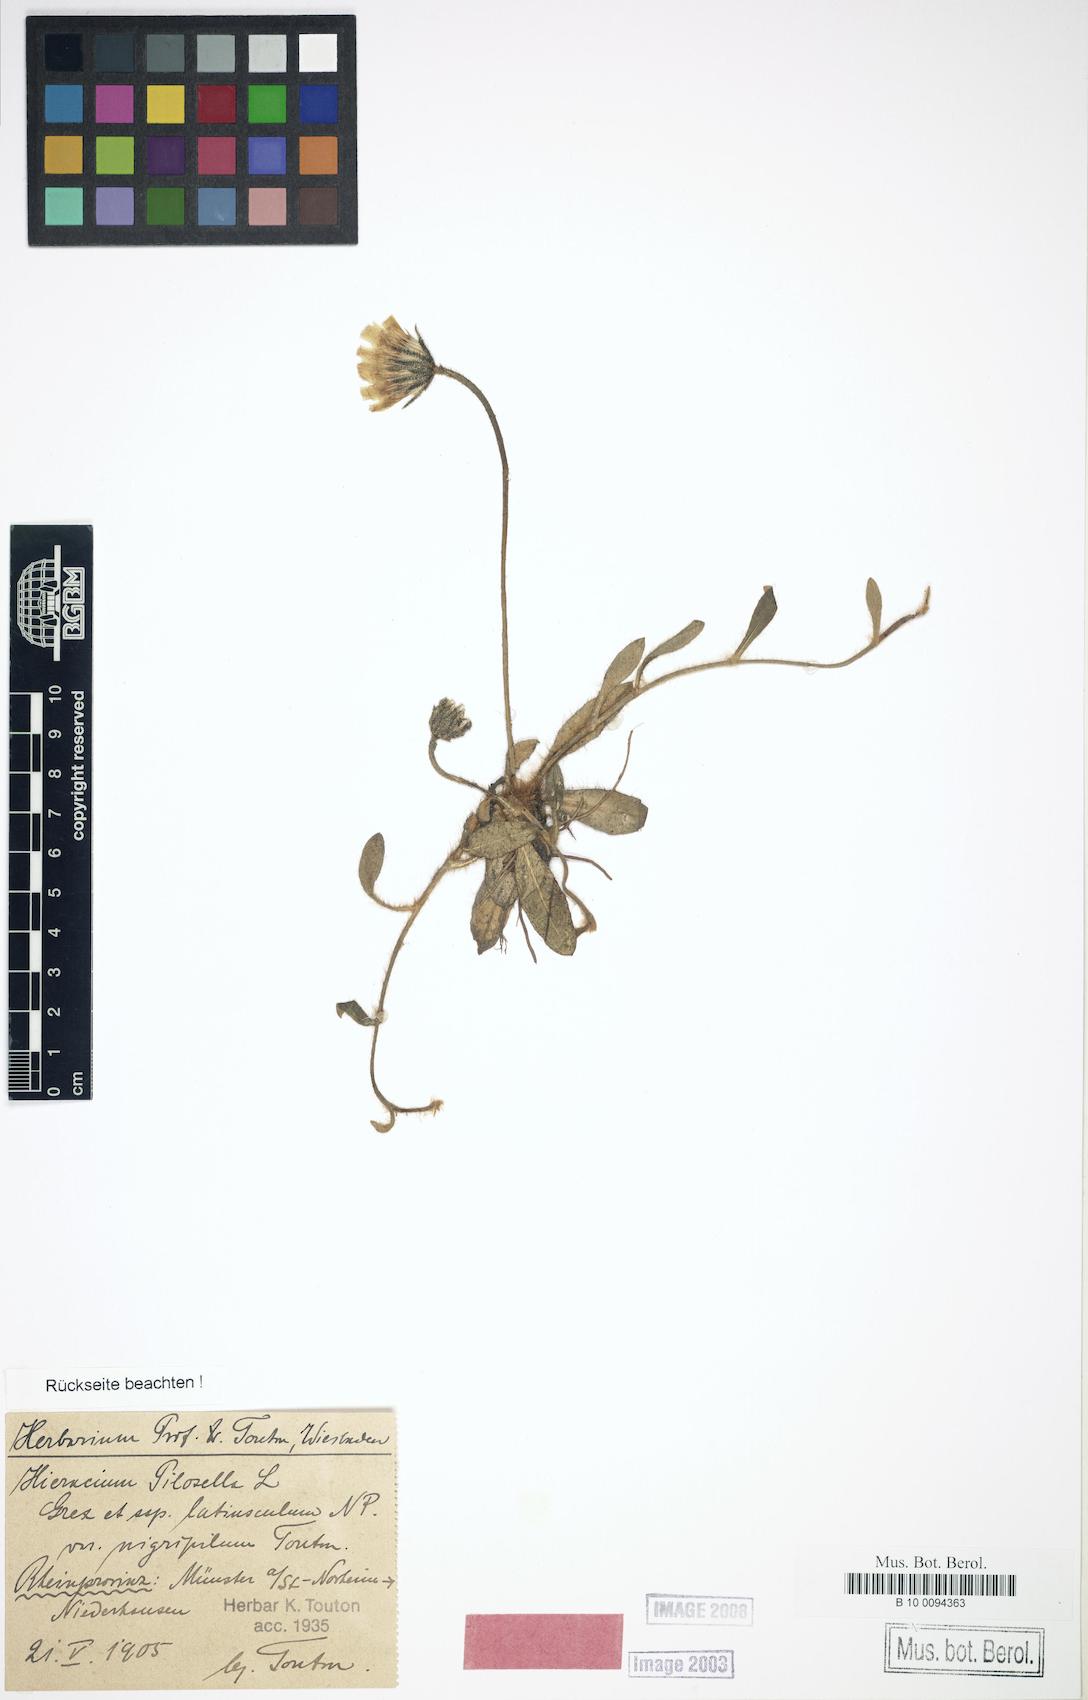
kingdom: Plantae
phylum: Tracheophyta
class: Magnoliopsida
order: Asterales
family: Asteraceae
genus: Pilosella
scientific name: Pilosella velutina
